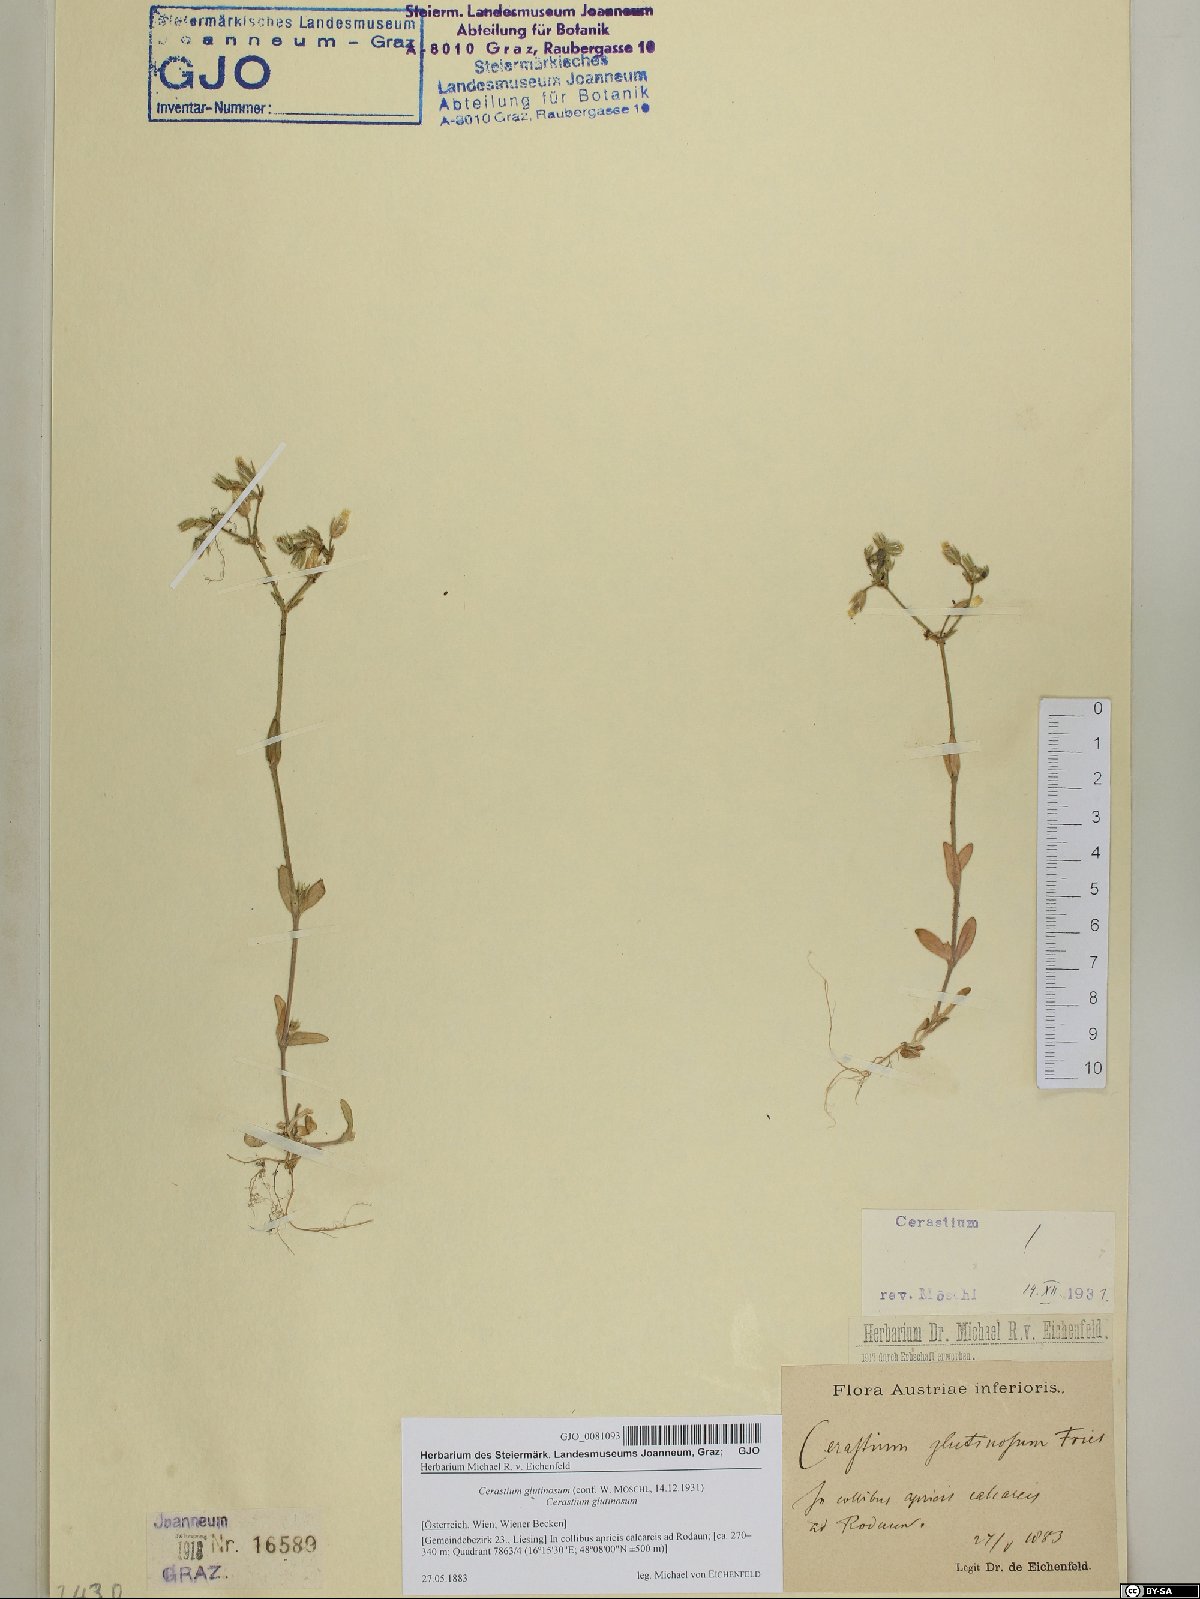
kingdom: Plantae
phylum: Tracheophyta
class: Magnoliopsida
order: Caryophyllales
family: Caryophyllaceae
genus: Cerastium
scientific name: Cerastium glutinosum
